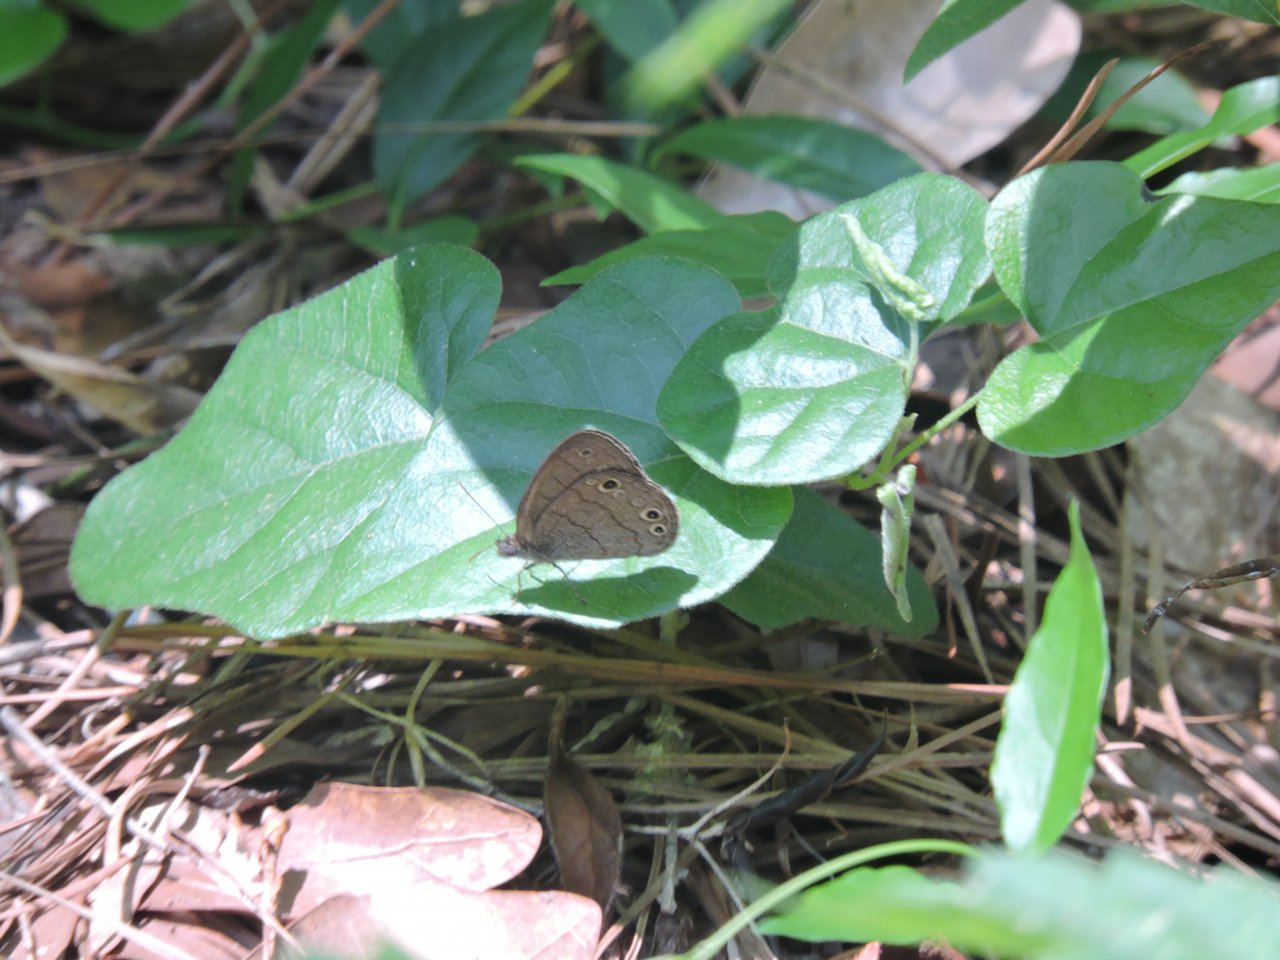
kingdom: Animalia
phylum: Arthropoda
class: Insecta
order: Lepidoptera
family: Nymphalidae
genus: Hermeuptychia
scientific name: Hermeuptychia hermes
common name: Carolina Satyr
